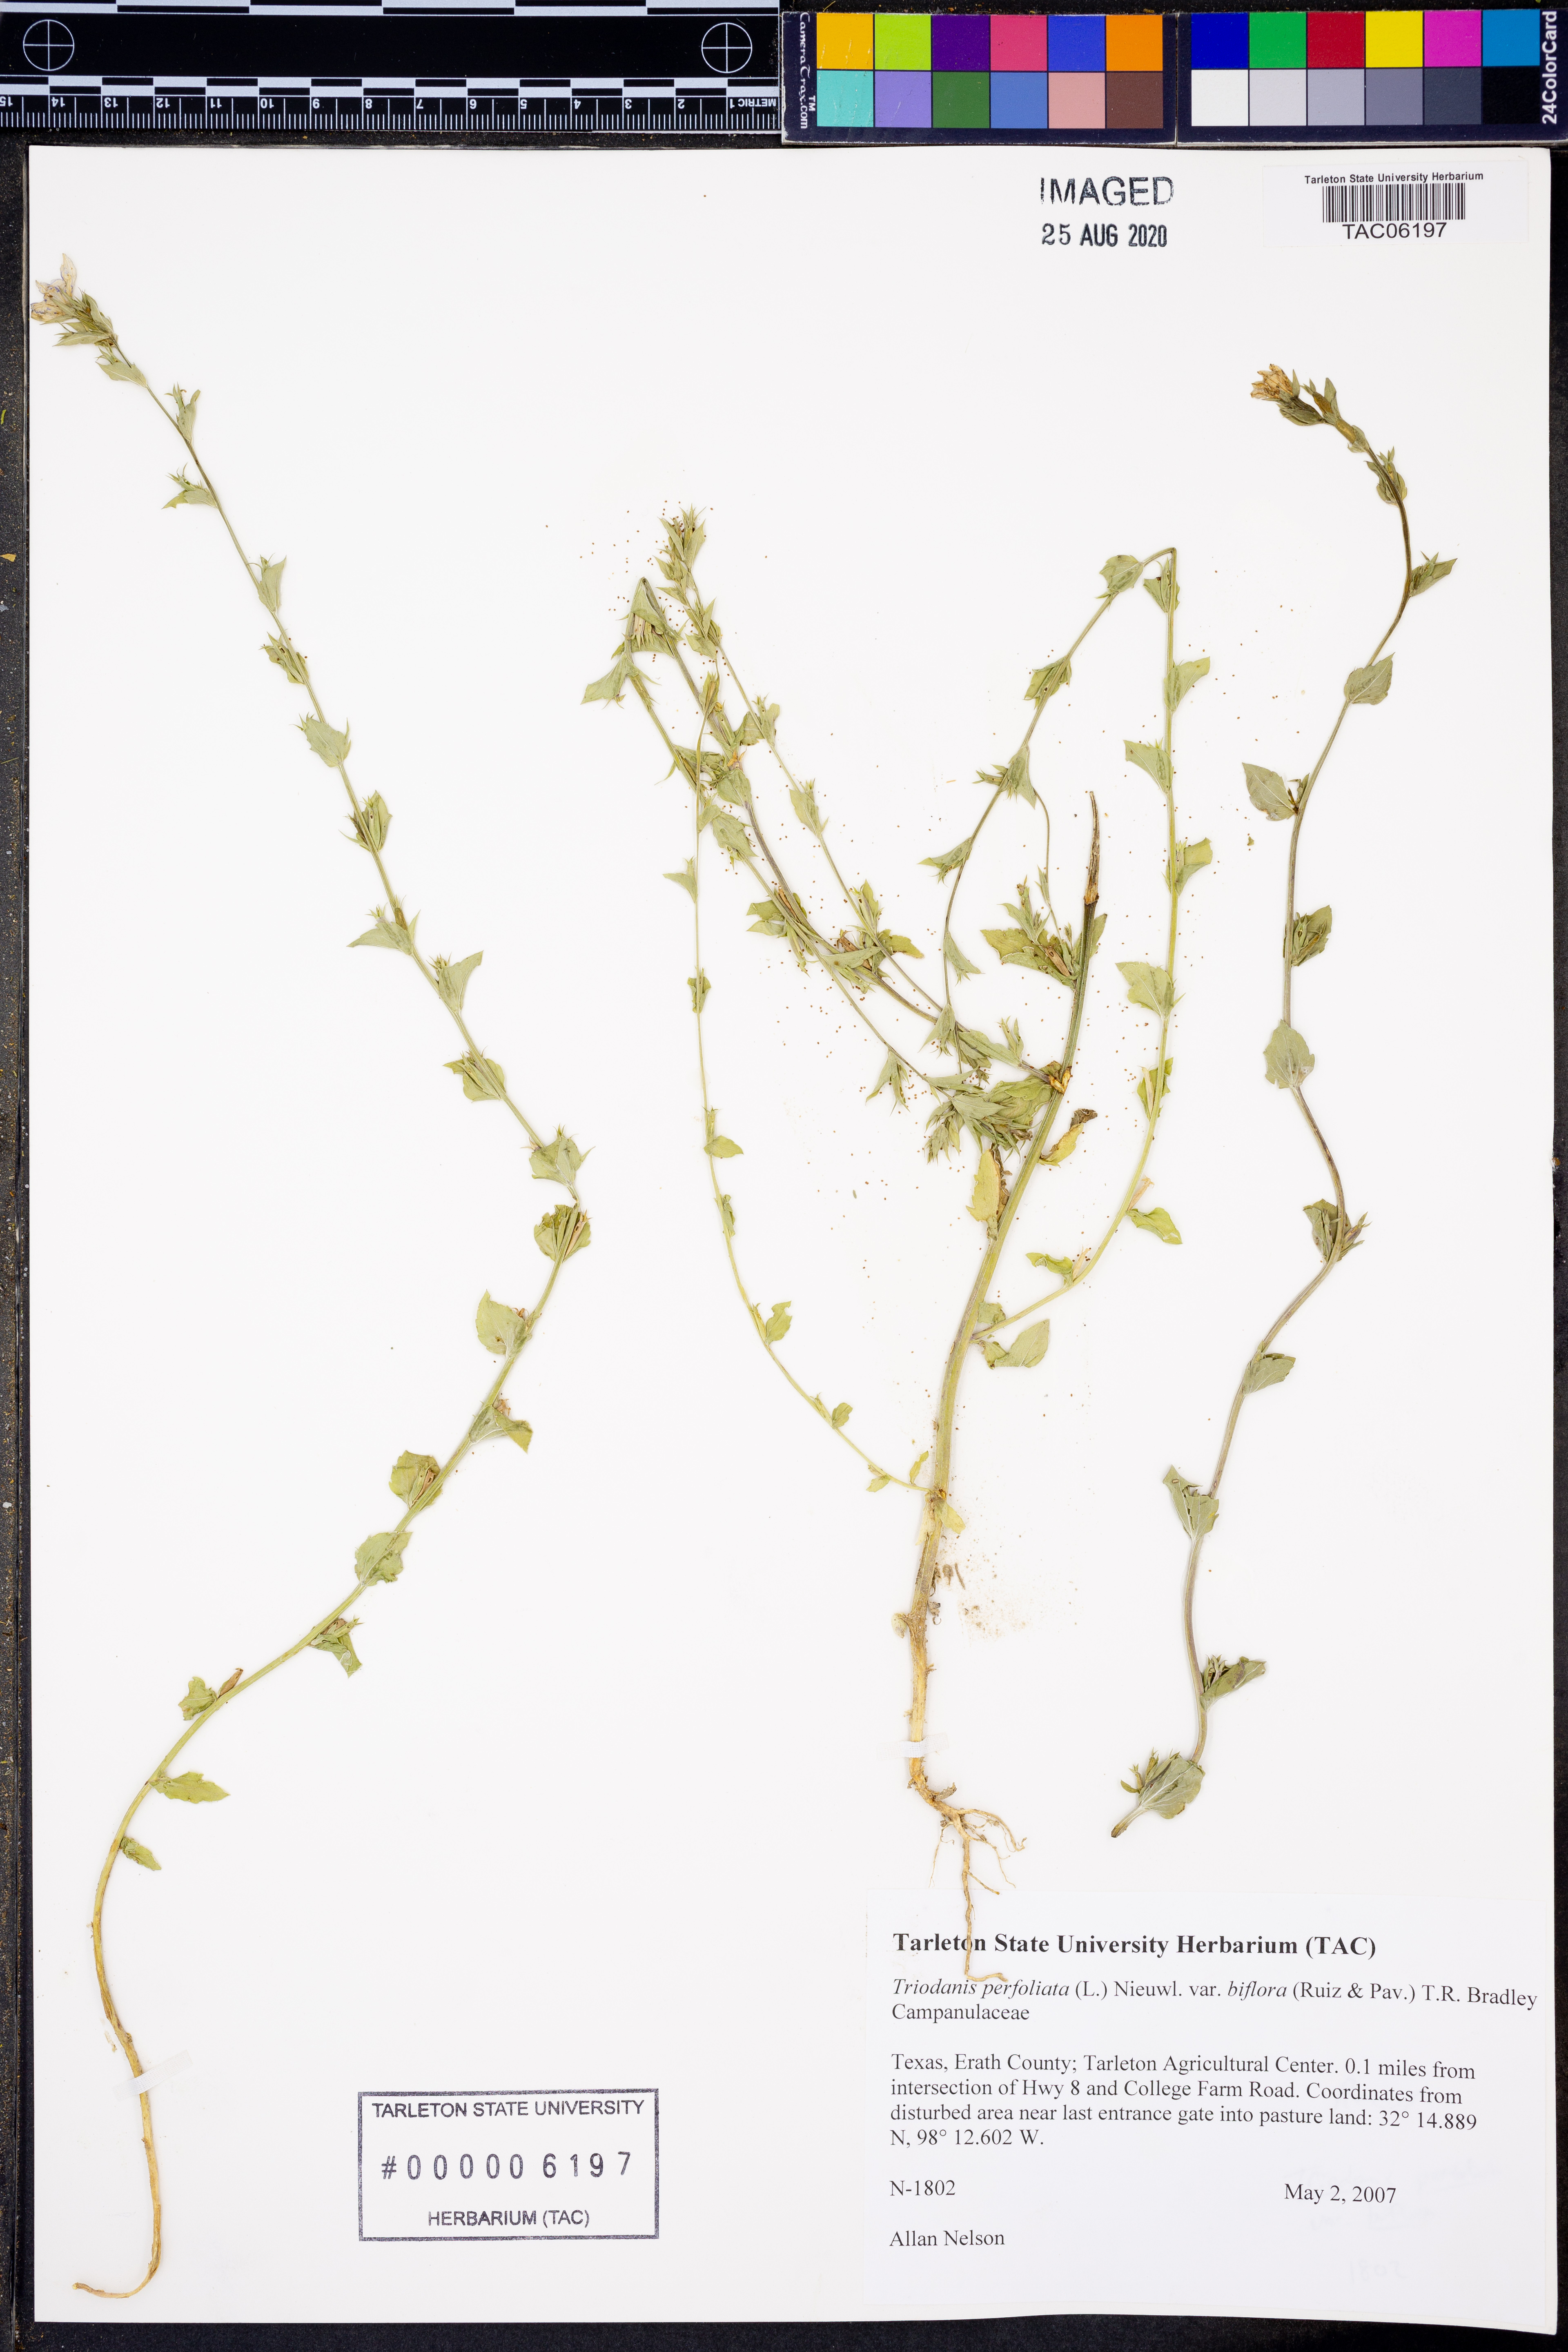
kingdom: Plantae
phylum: Tracheophyta
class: Magnoliopsida
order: Asterales
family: Campanulaceae
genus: Triodanis
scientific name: Triodanis perfoliata
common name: Clasping venus' looking-glass
